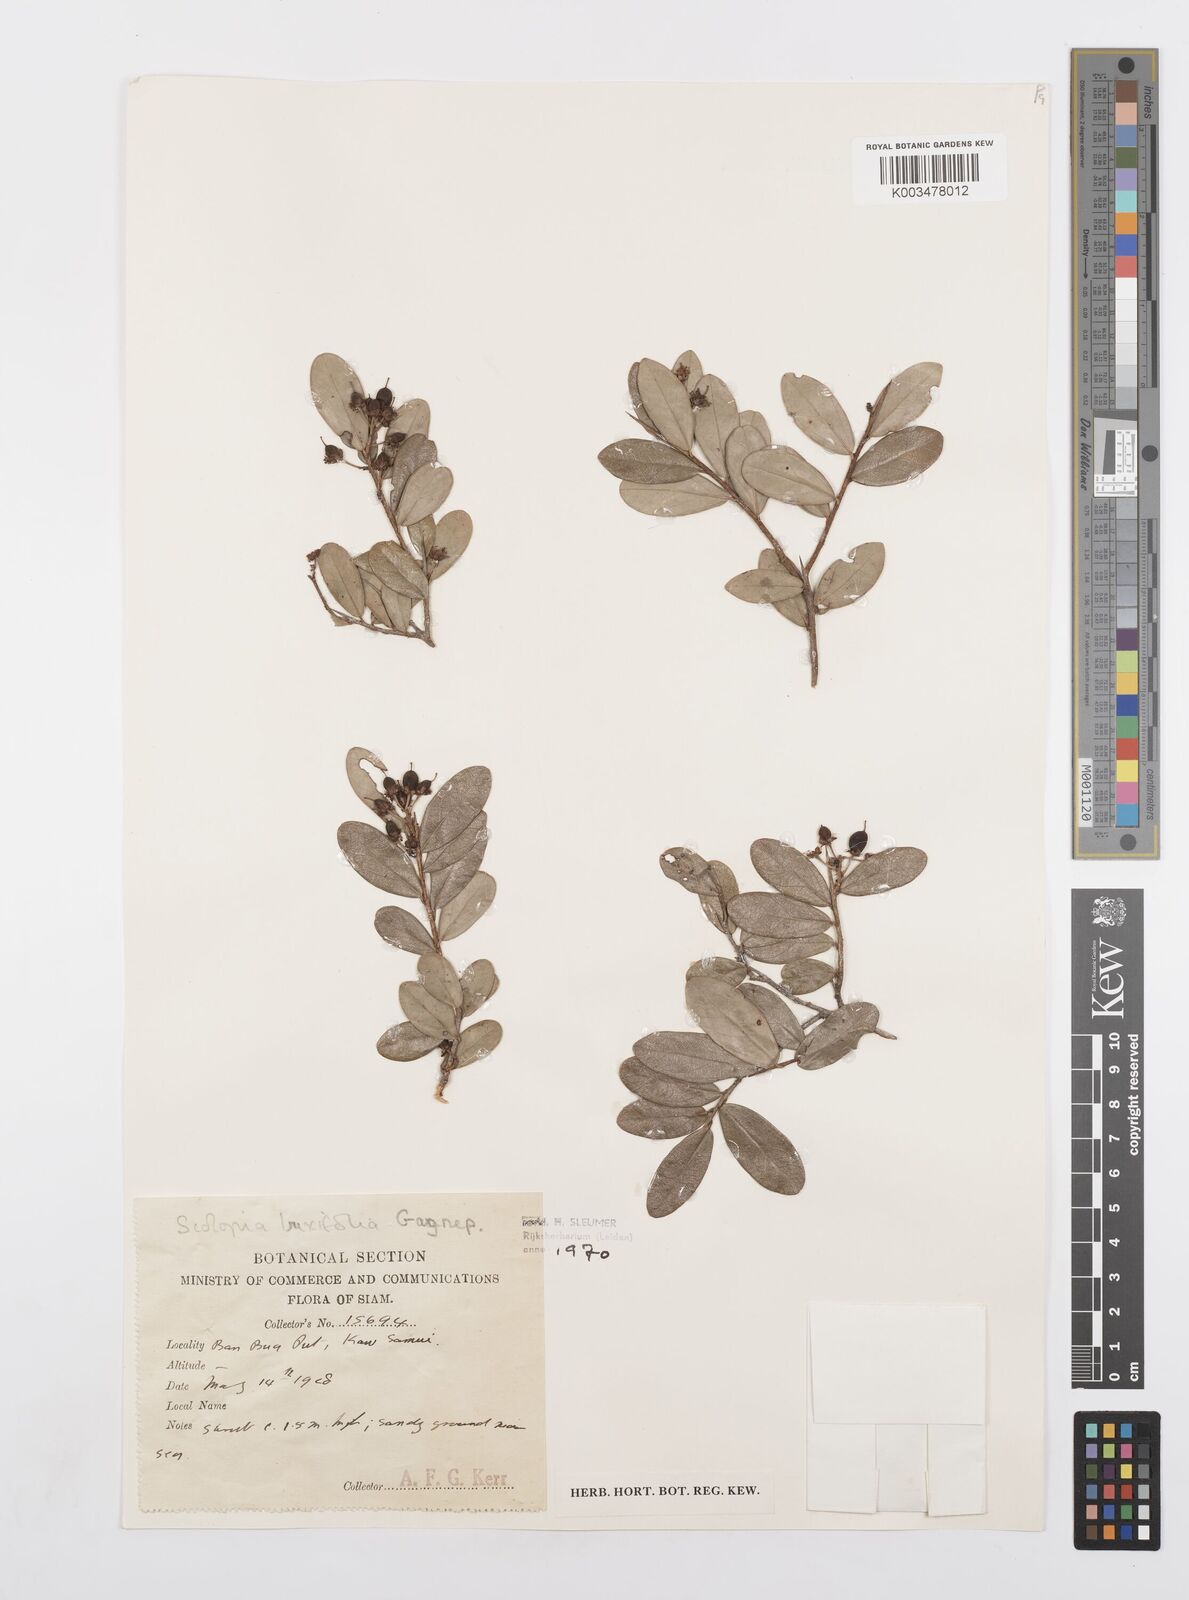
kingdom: Plantae
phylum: Tracheophyta
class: Magnoliopsida
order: Malpighiales
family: Salicaceae
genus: Scolopia
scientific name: Scolopia buxifolia
